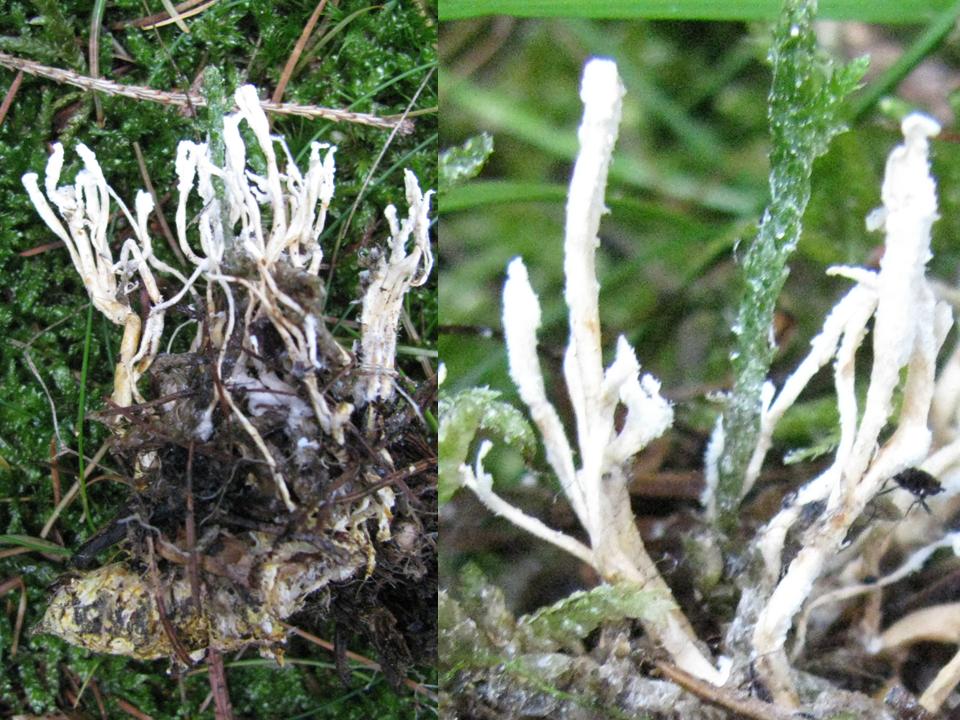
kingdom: Fungi
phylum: Ascomycota
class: Sordariomycetes
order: Hypocreales
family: Cordycipitaceae
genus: Cordyceps
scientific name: Cordyceps farinosa
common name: melet snyltekølle
